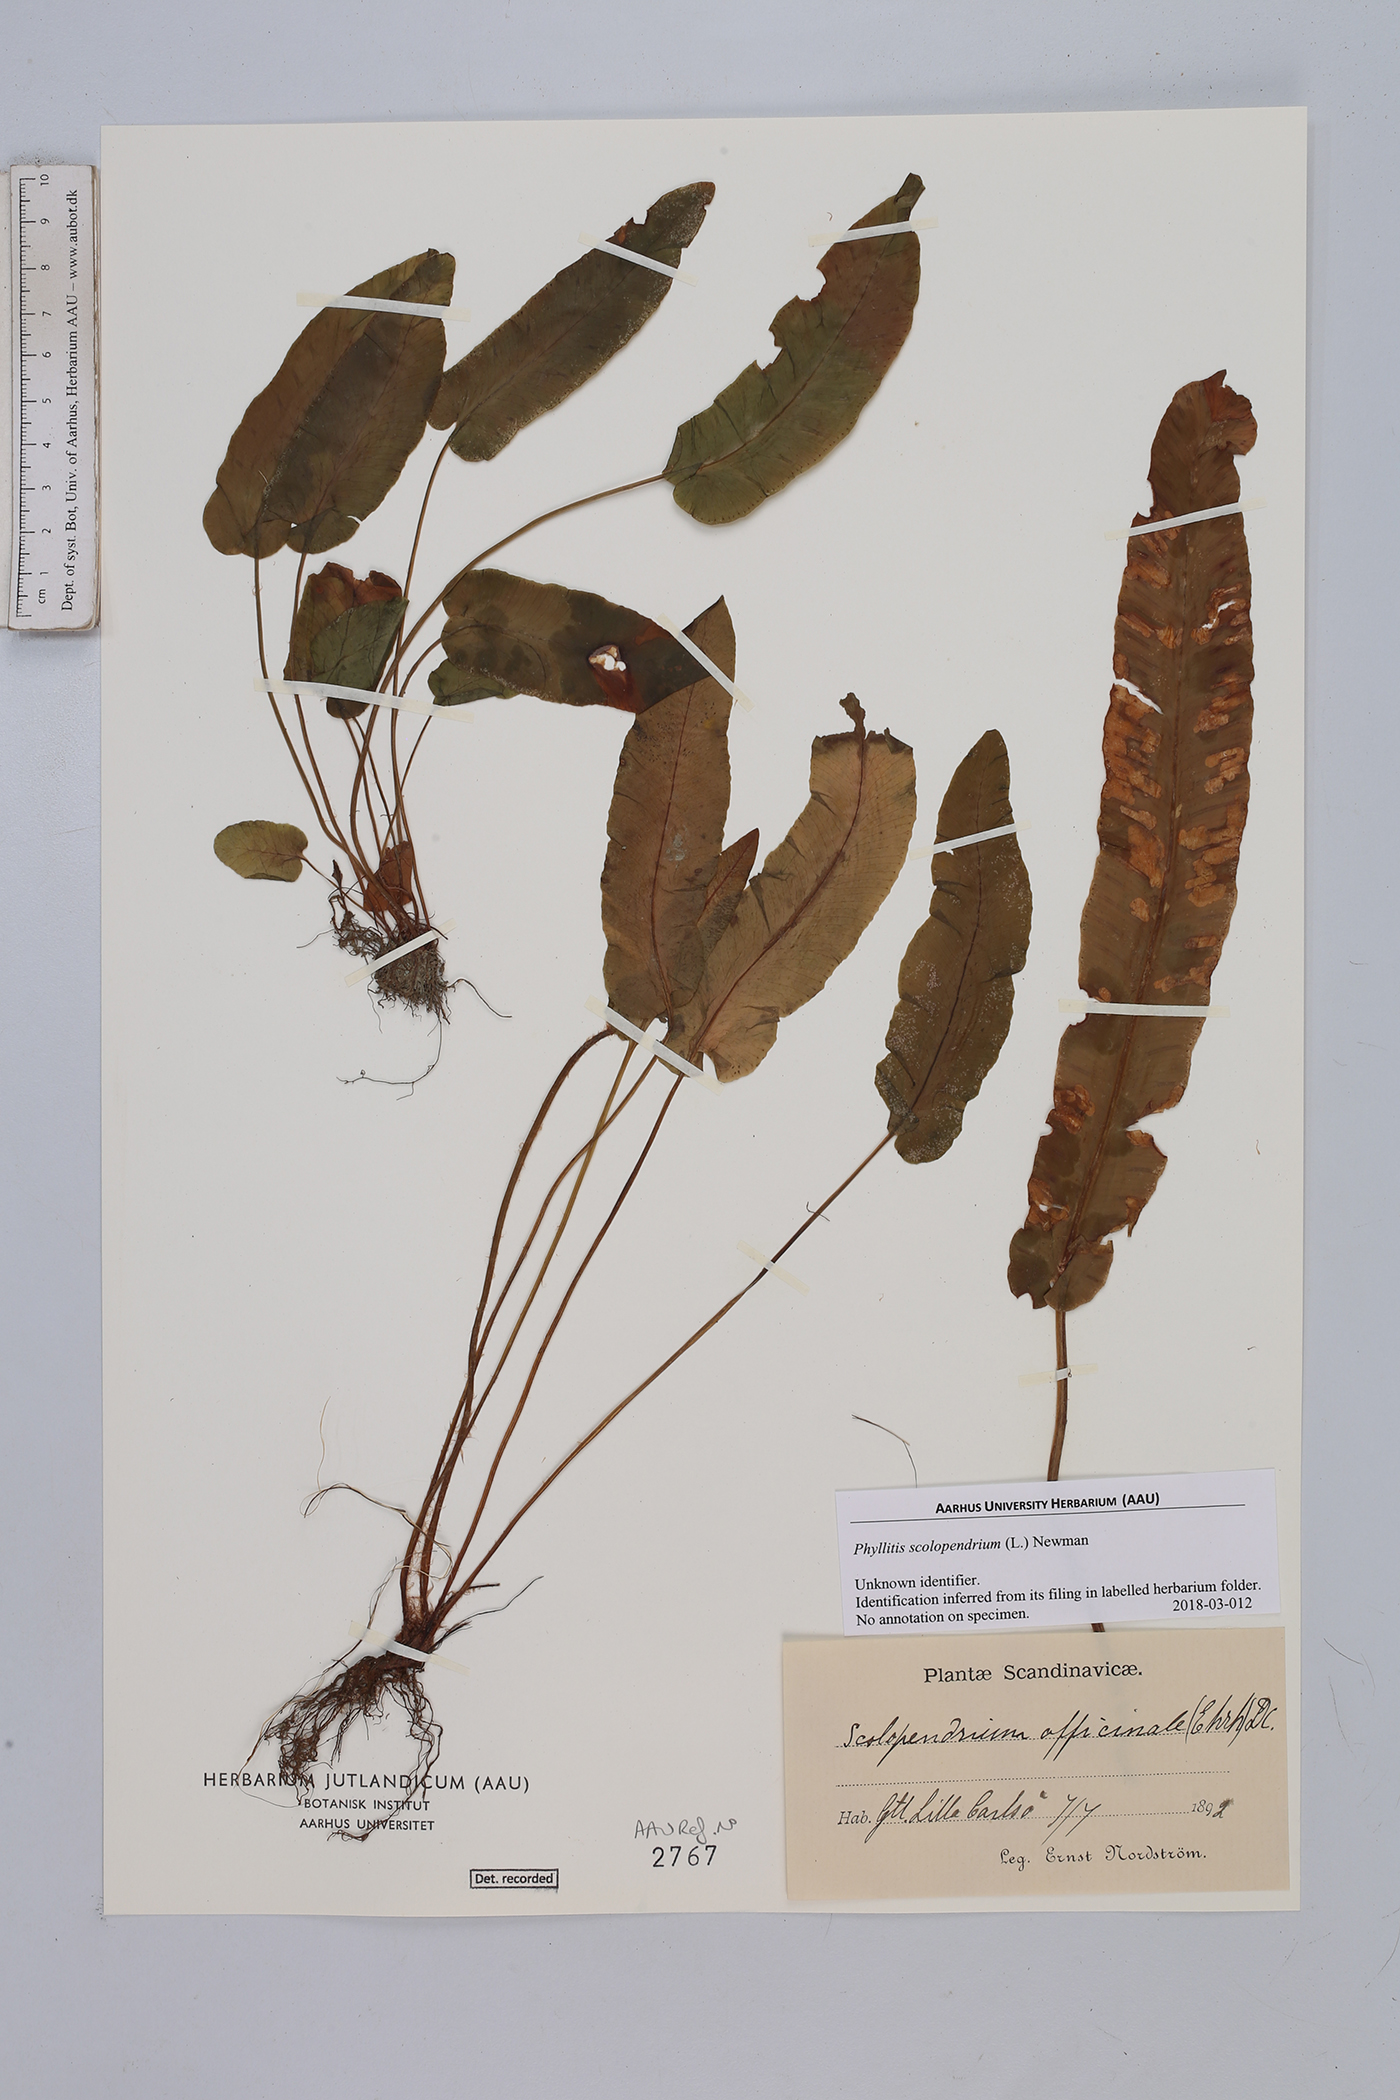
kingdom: Plantae
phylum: Tracheophyta
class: Polypodiopsida
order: Polypodiales
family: Aspleniaceae
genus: Asplenium
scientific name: Asplenium scolopendrium
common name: Hart's-tongue fern
